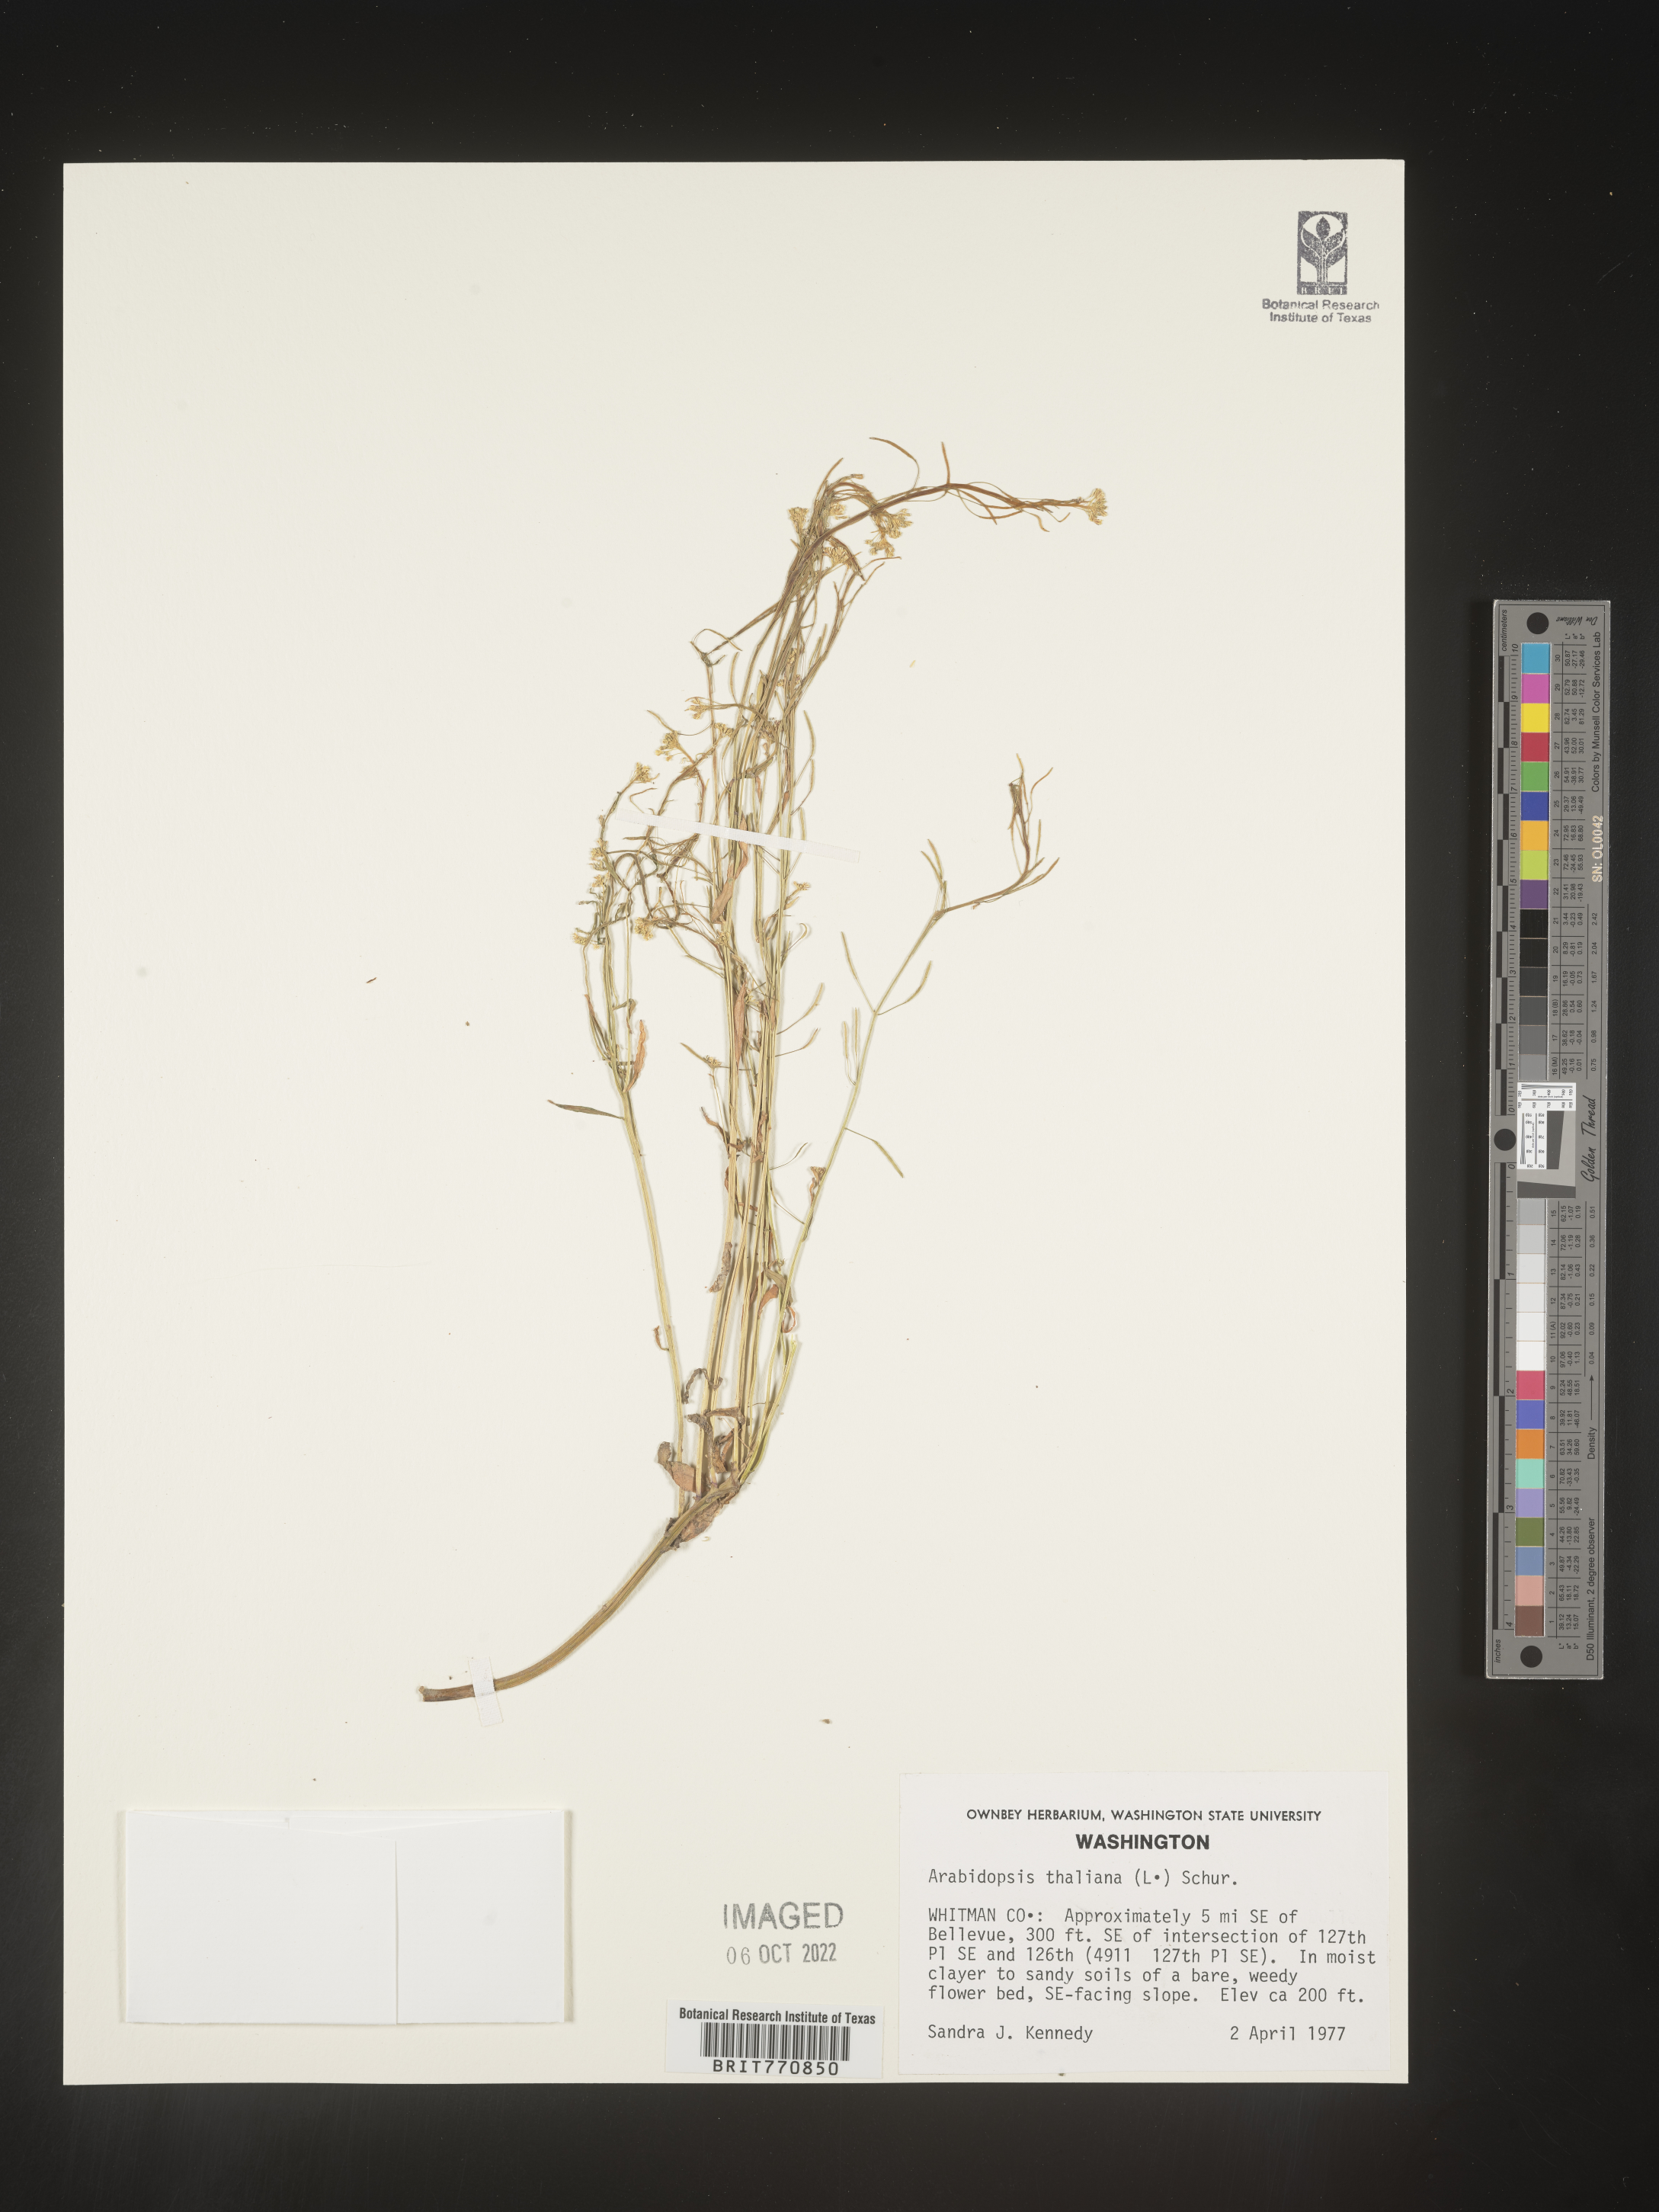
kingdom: Plantae
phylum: Tracheophyta
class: Magnoliopsida
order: Brassicales
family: Brassicaceae
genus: Arabidopsis
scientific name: Arabidopsis thaliana
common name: Thale cress
